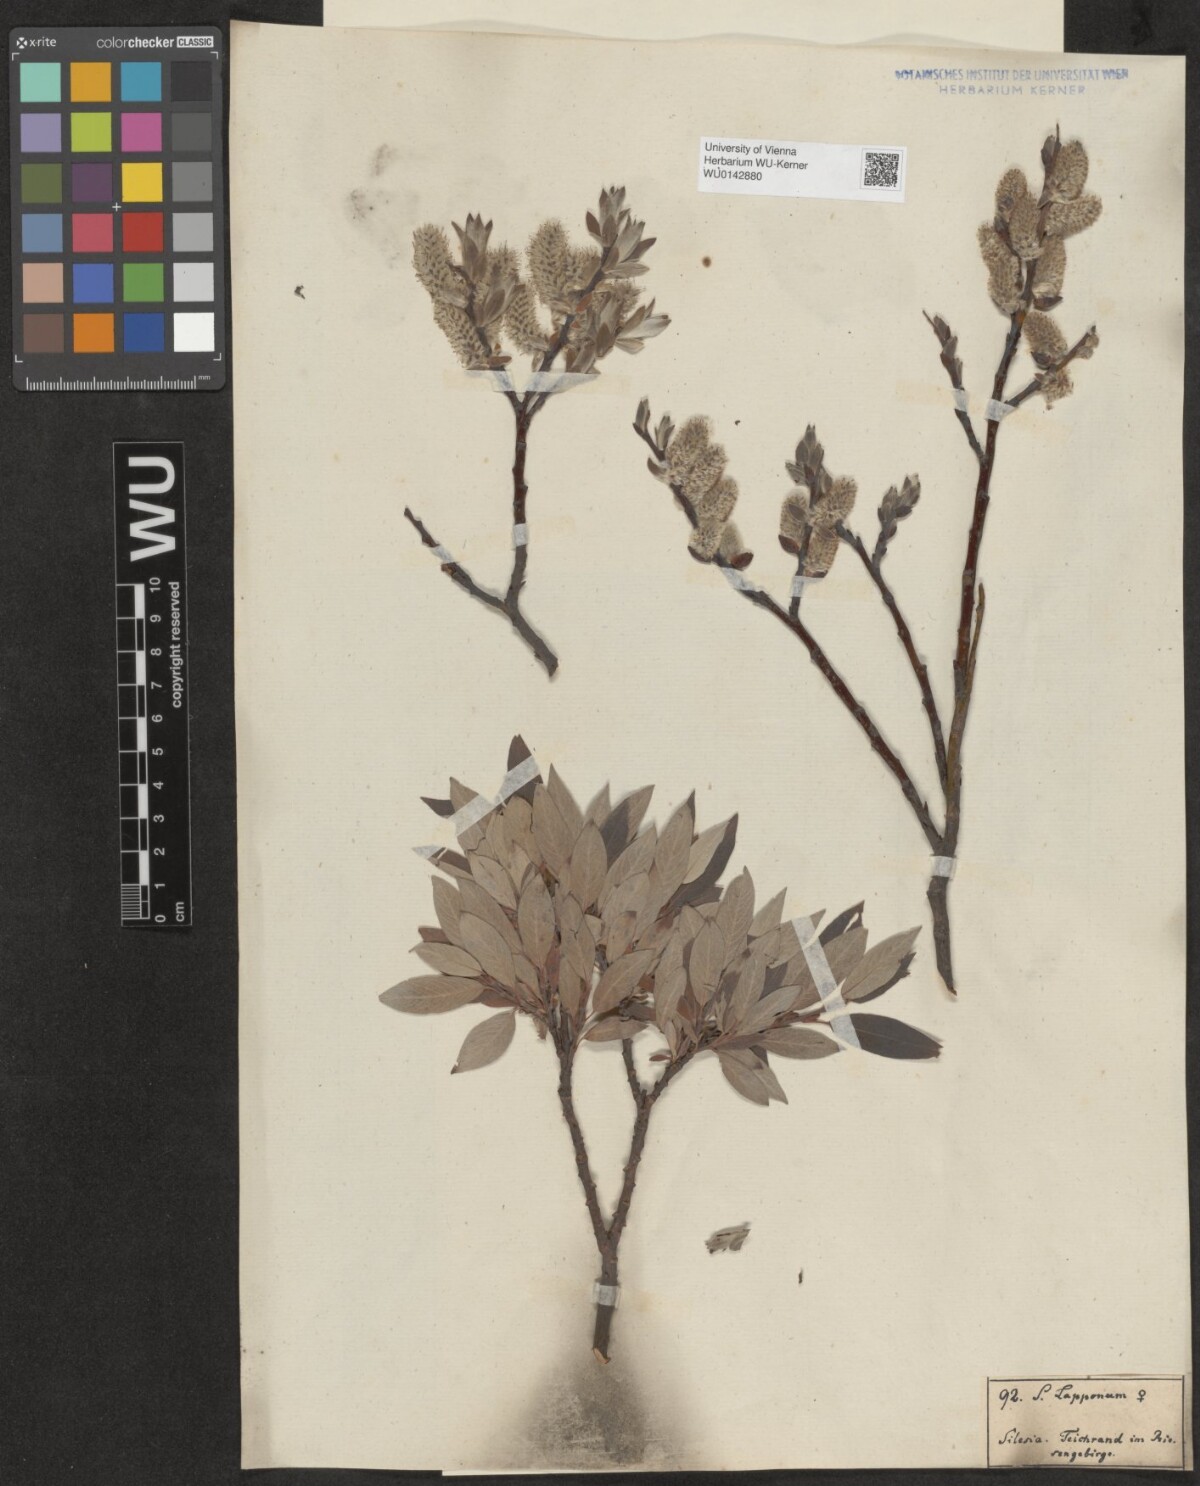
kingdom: Plantae
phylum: Tracheophyta
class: Magnoliopsida
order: Malpighiales
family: Salicaceae
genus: Salix
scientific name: Salix lapponum
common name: Downy willow
